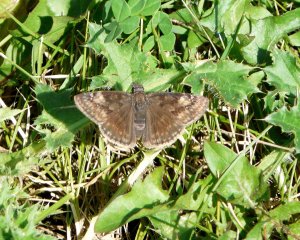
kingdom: Animalia
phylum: Arthropoda
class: Insecta
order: Lepidoptera
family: Hesperiidae
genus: Gesta
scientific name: Gesta
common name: Wild Indigo Duskywing
